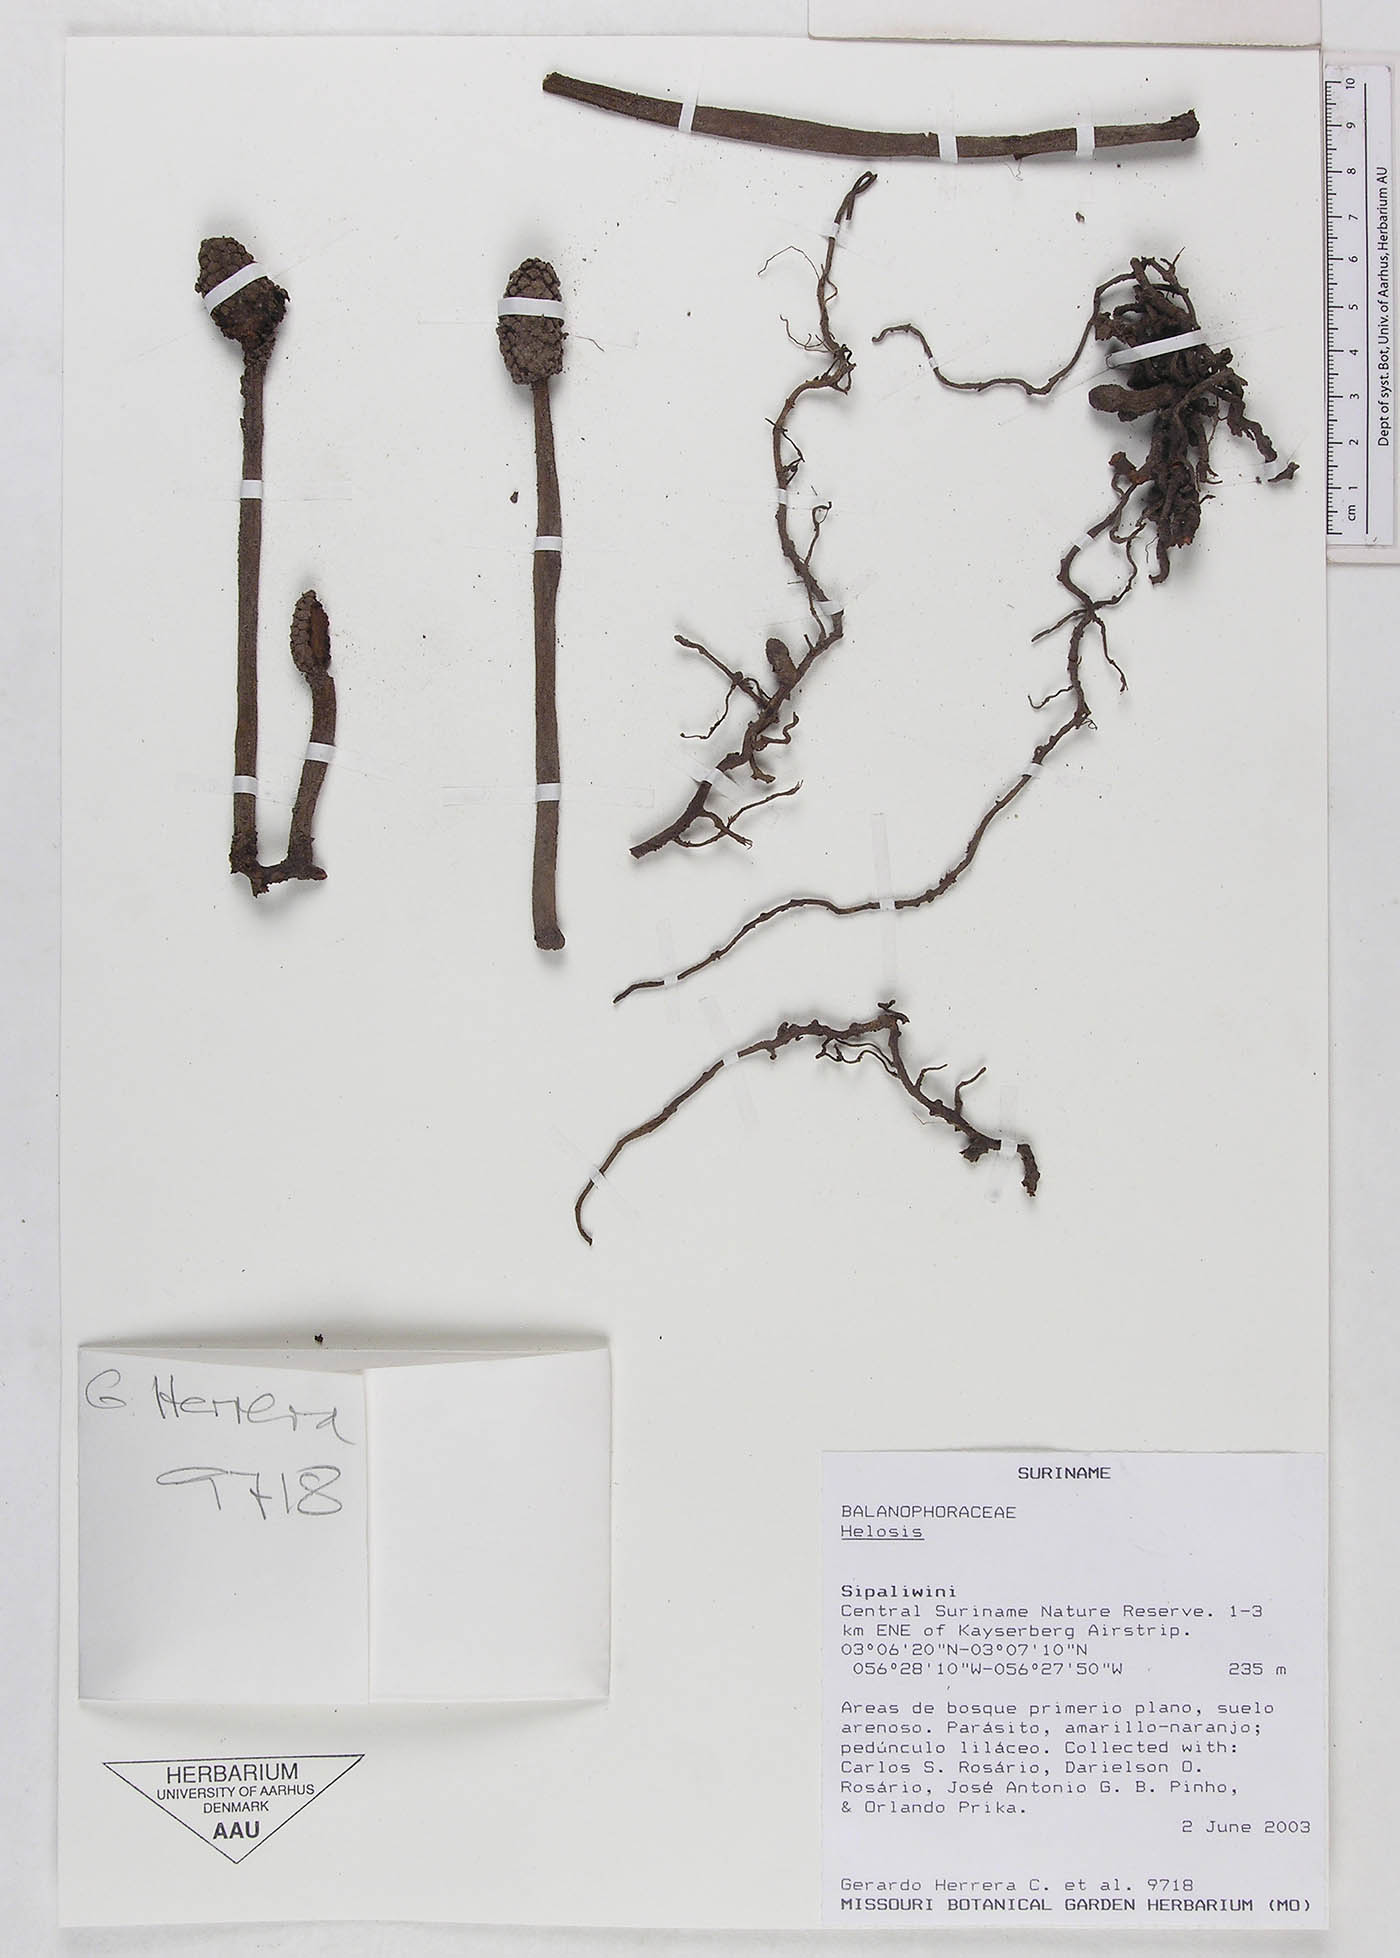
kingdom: Plantae
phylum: Tracheophyta
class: Magnoliopsida
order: Santalales
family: Balanophoraceae
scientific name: Balanophoraceae
